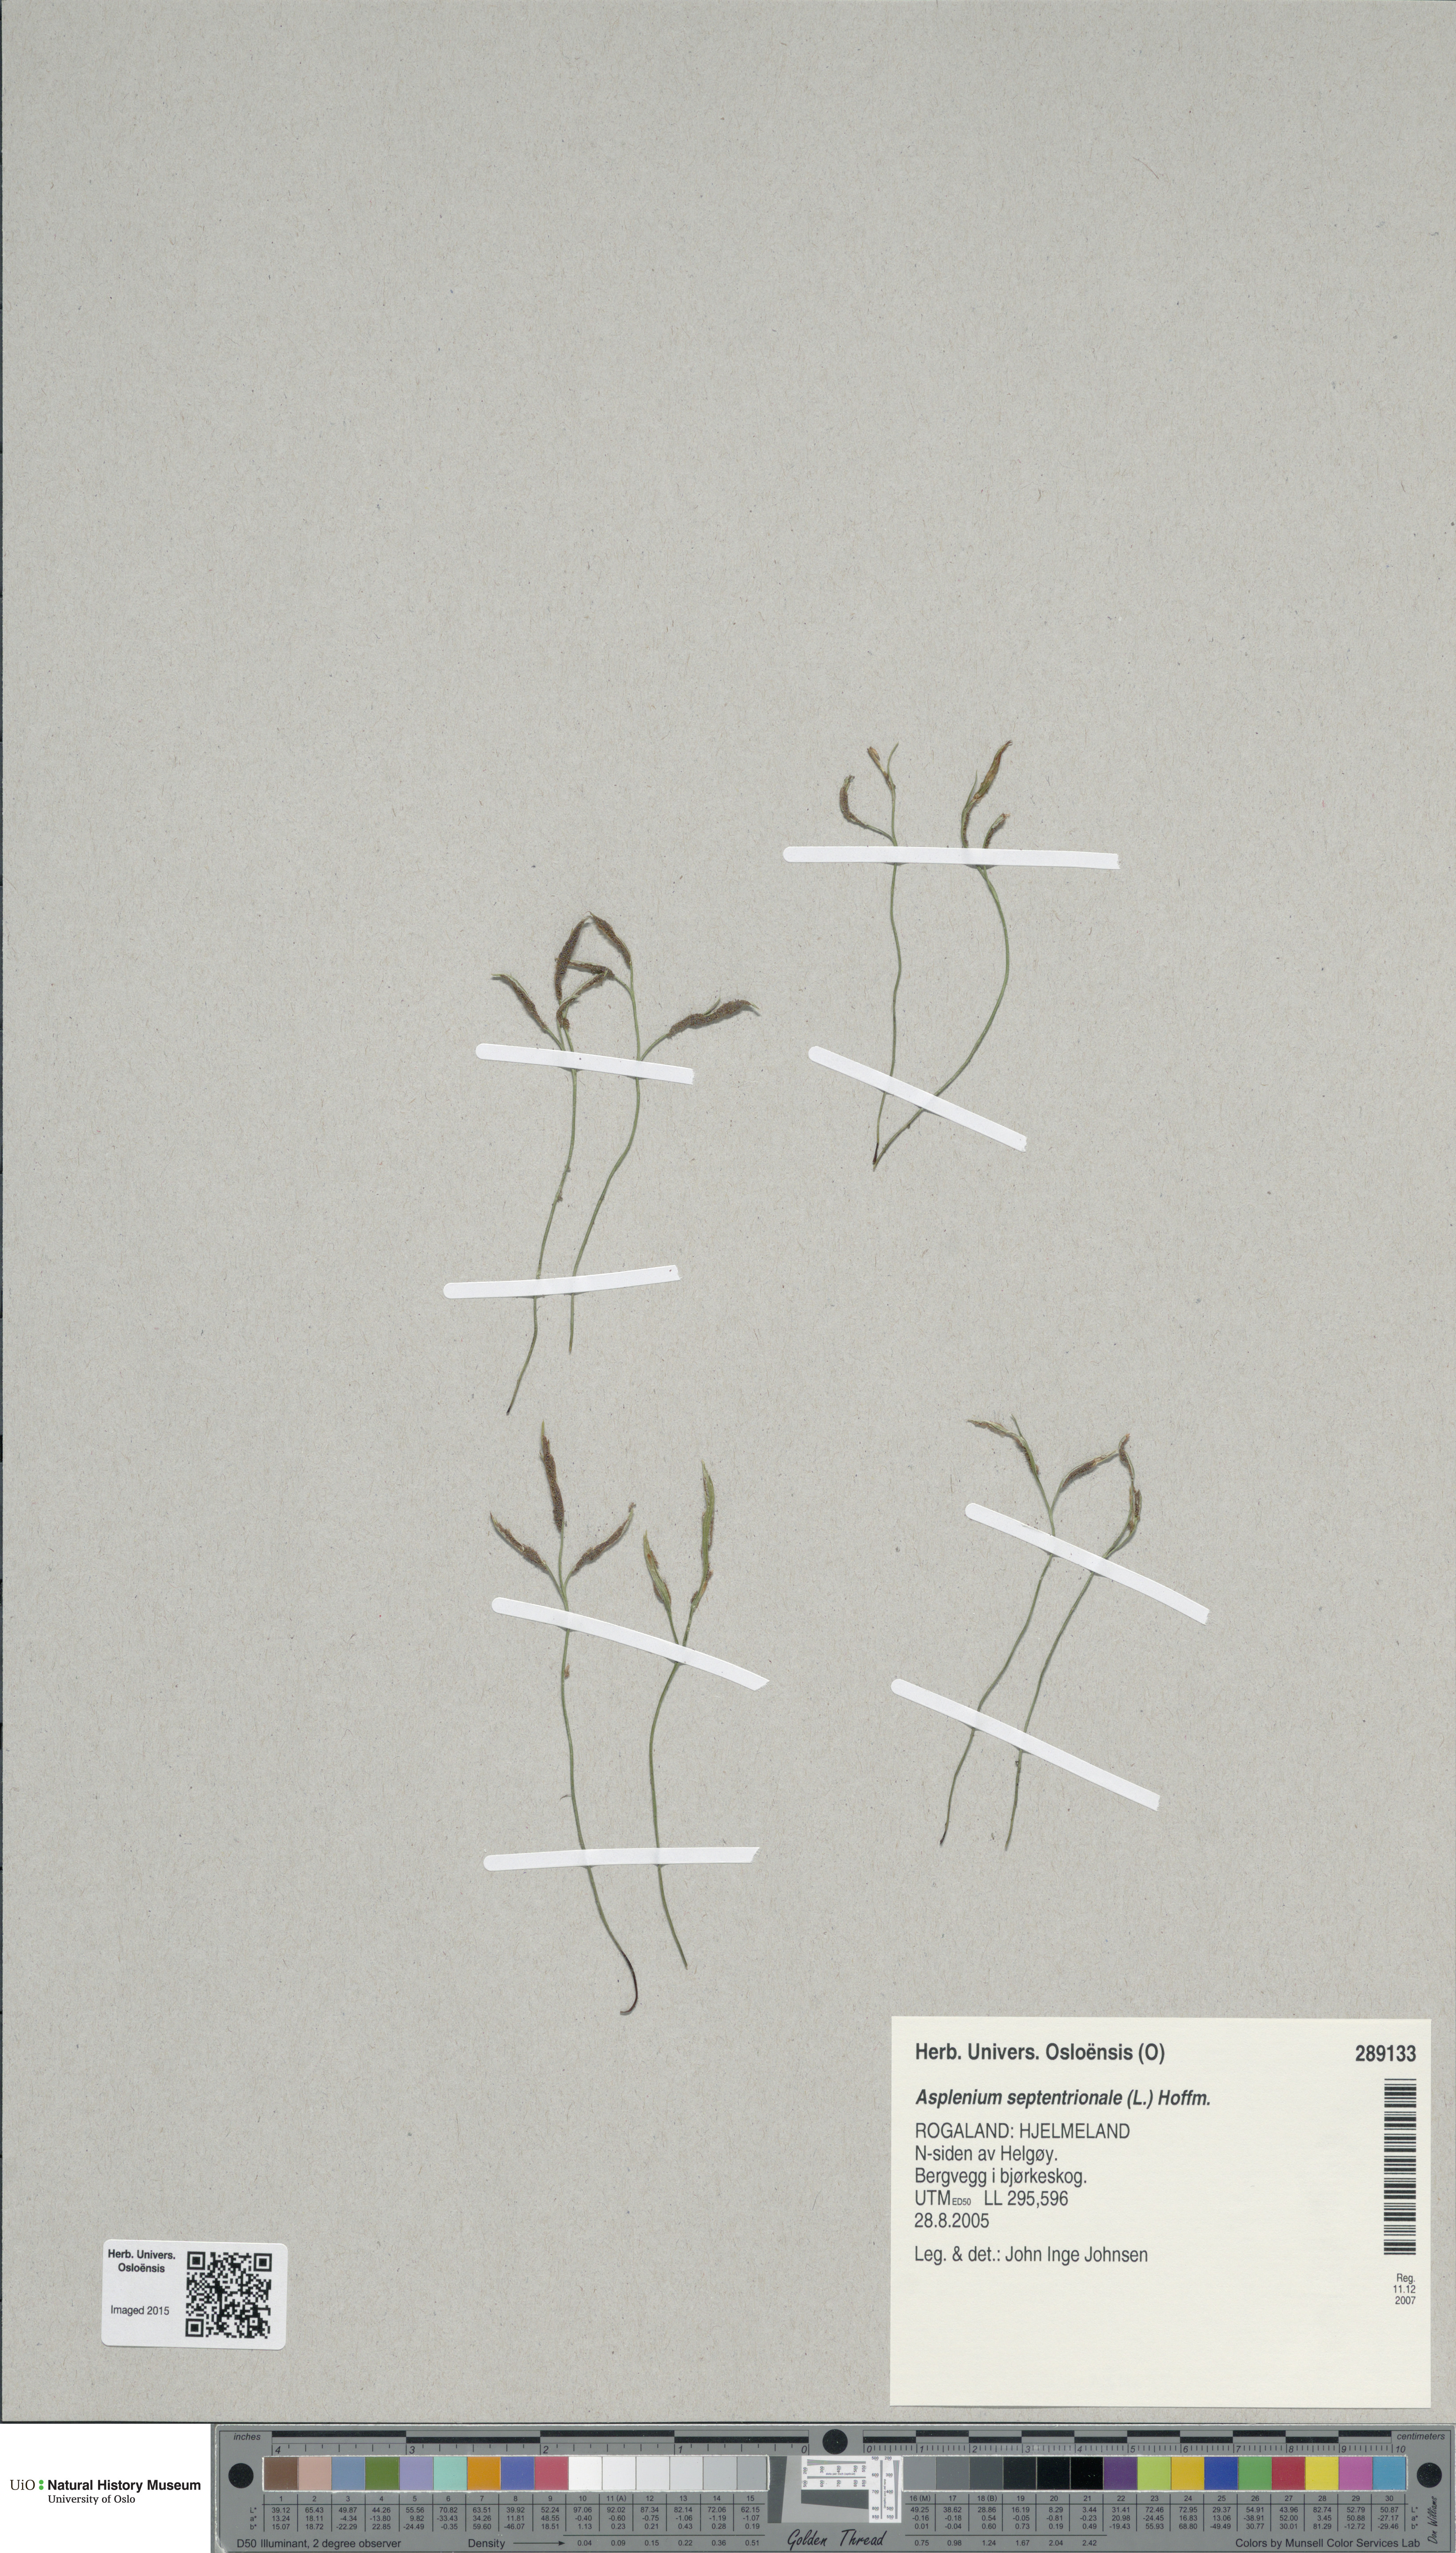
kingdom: Plantae
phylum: Tracheophyta
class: Polypodiopsida
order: Polypodiales
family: Aspleniaceae
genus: Asplenium
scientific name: Asplenium septentrionale
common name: Forked spleenwort
